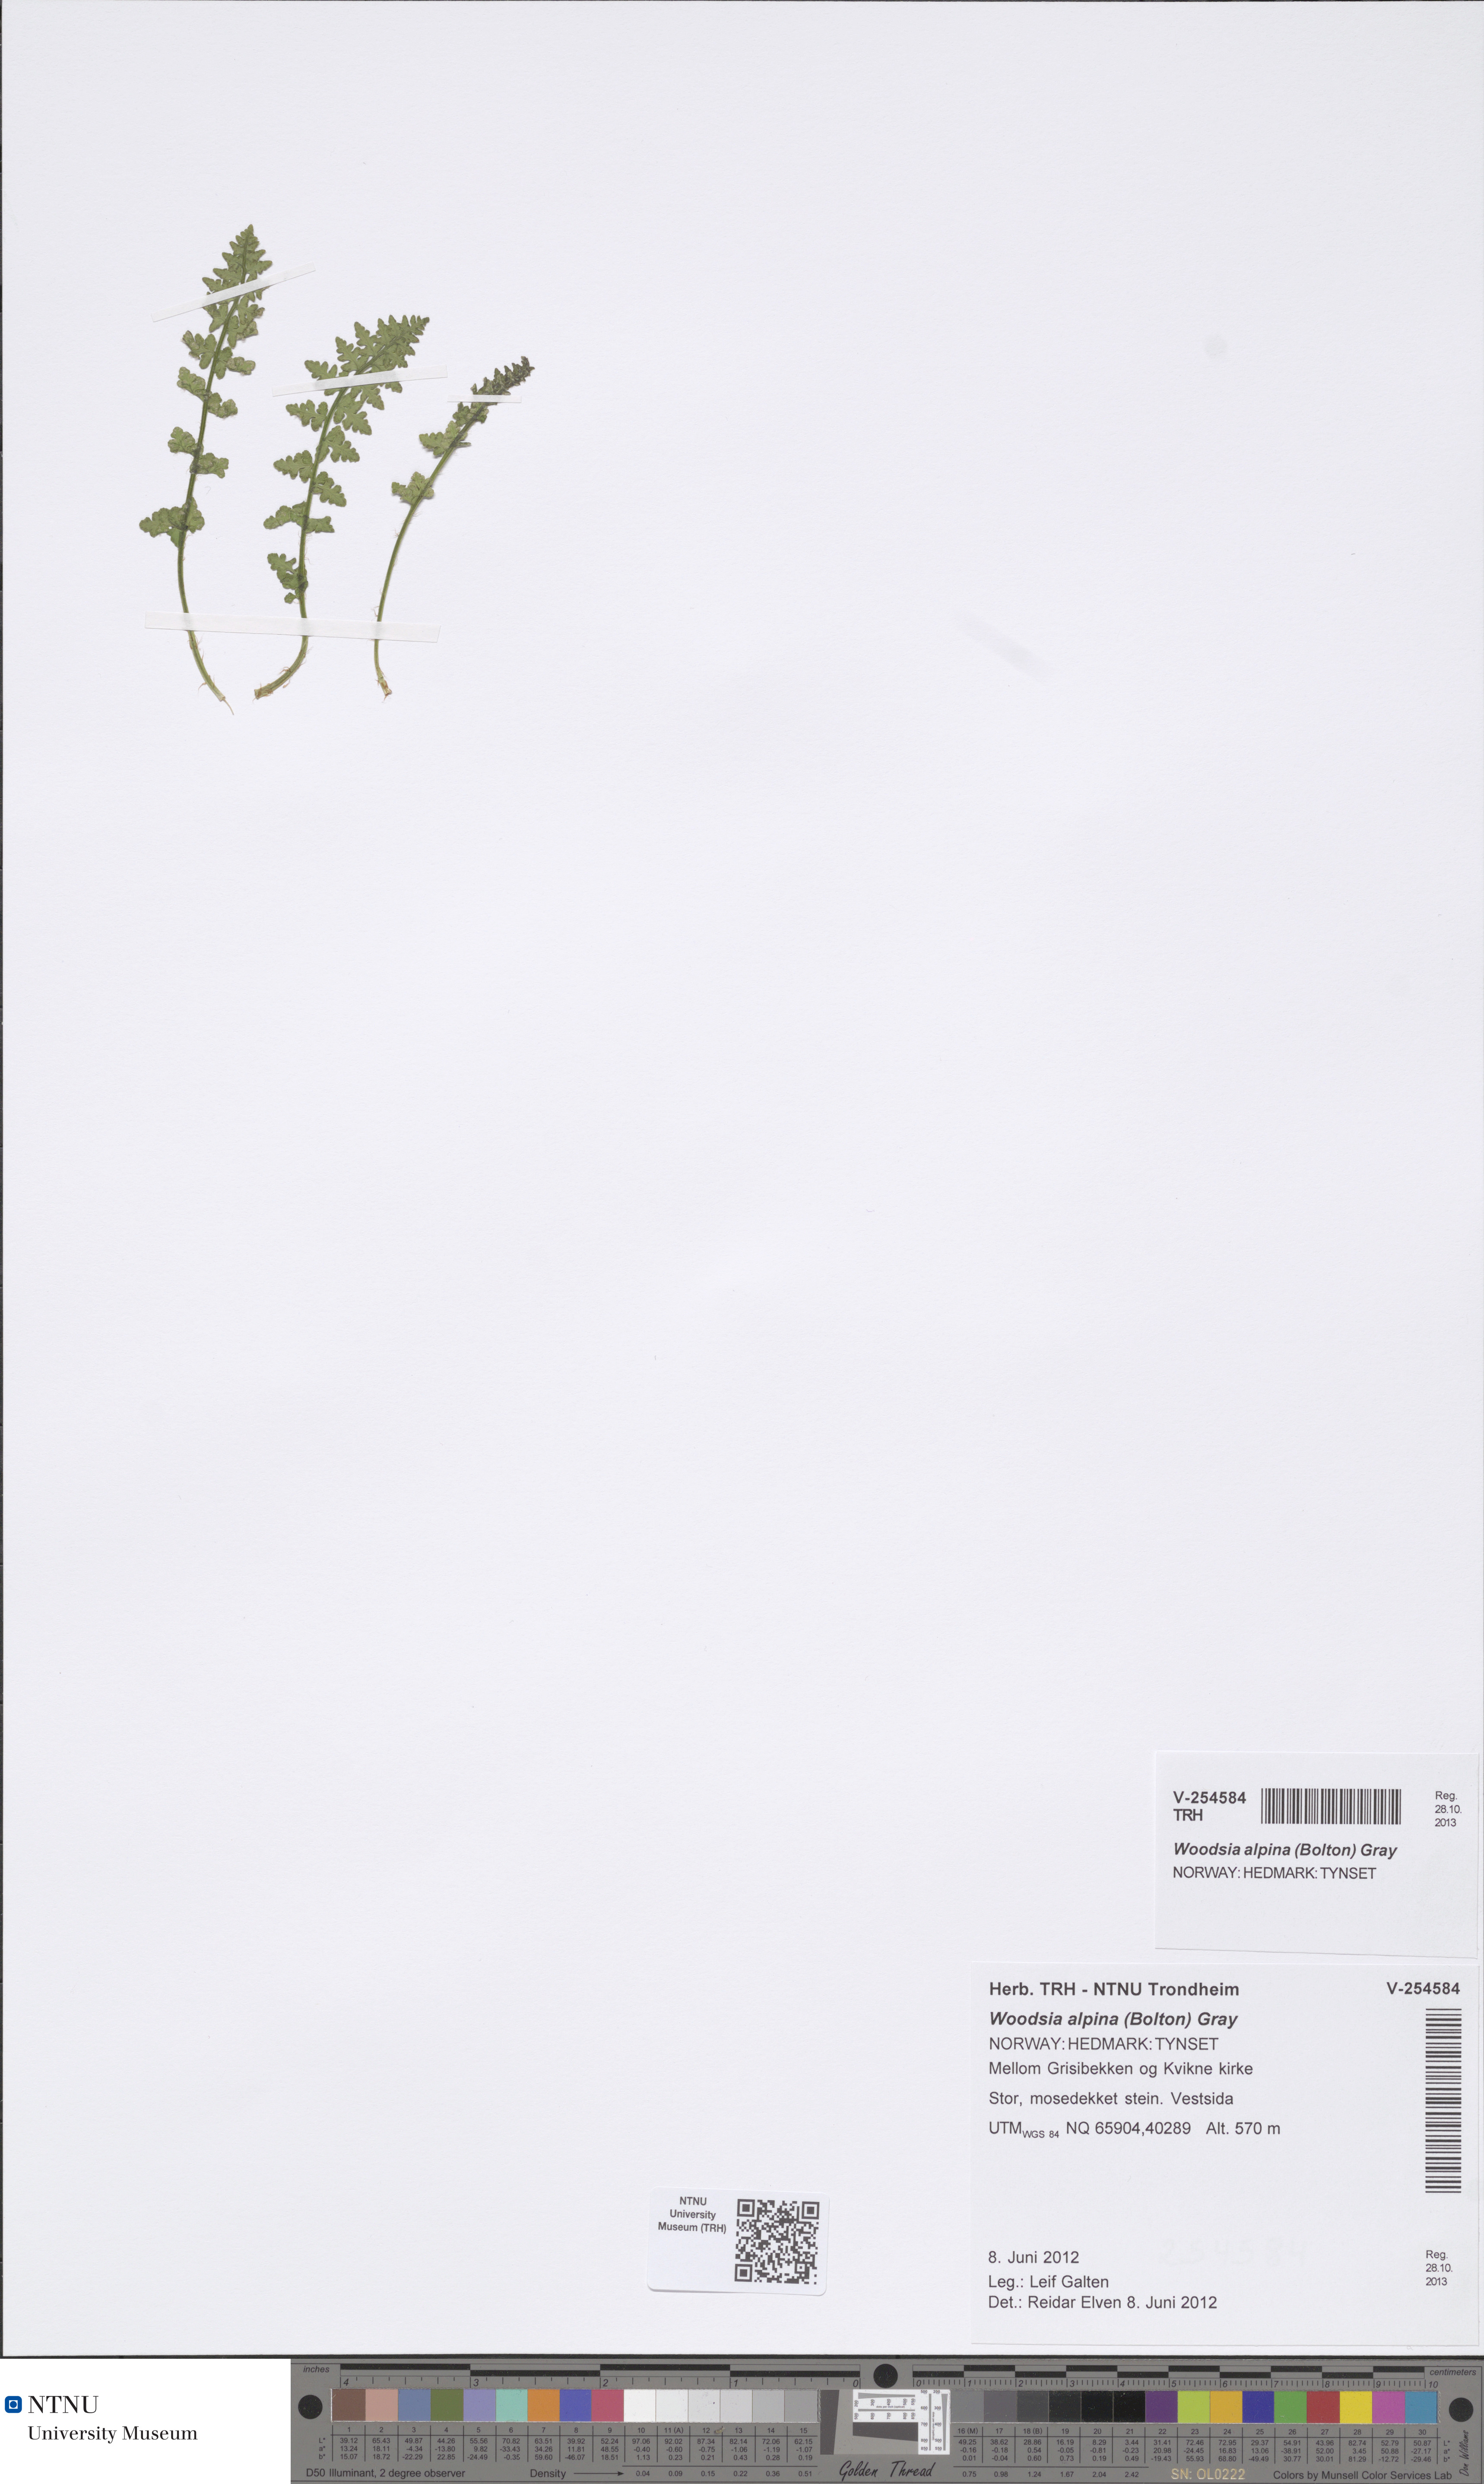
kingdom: Plantae
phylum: Tracheophyta
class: Polypodiopsida
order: Polypodiales
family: Woodsiaceae
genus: Woodsia
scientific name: Woodsia alpina
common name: Alpine woodsia
